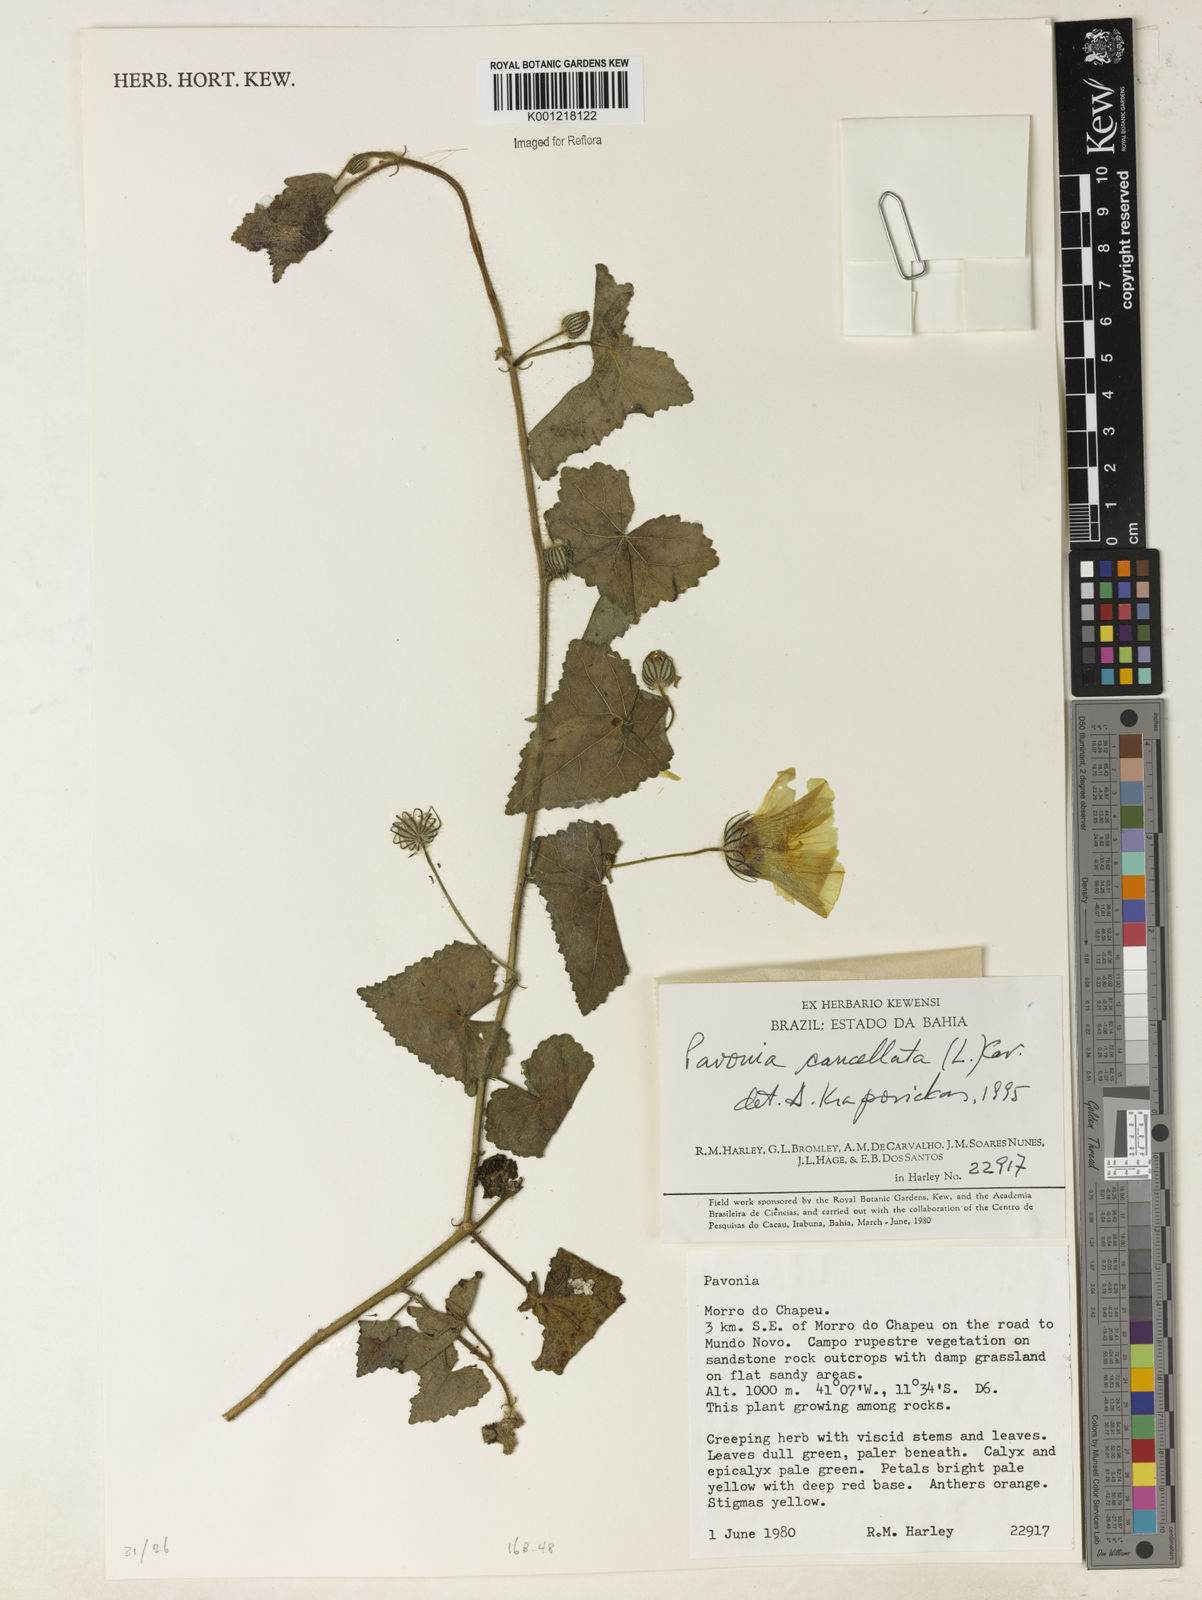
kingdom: Plantae
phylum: Tracheophyta
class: Magnoliopsida
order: Malvales
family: Malvaceae
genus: Pavonia
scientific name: Pavonia cancellata
